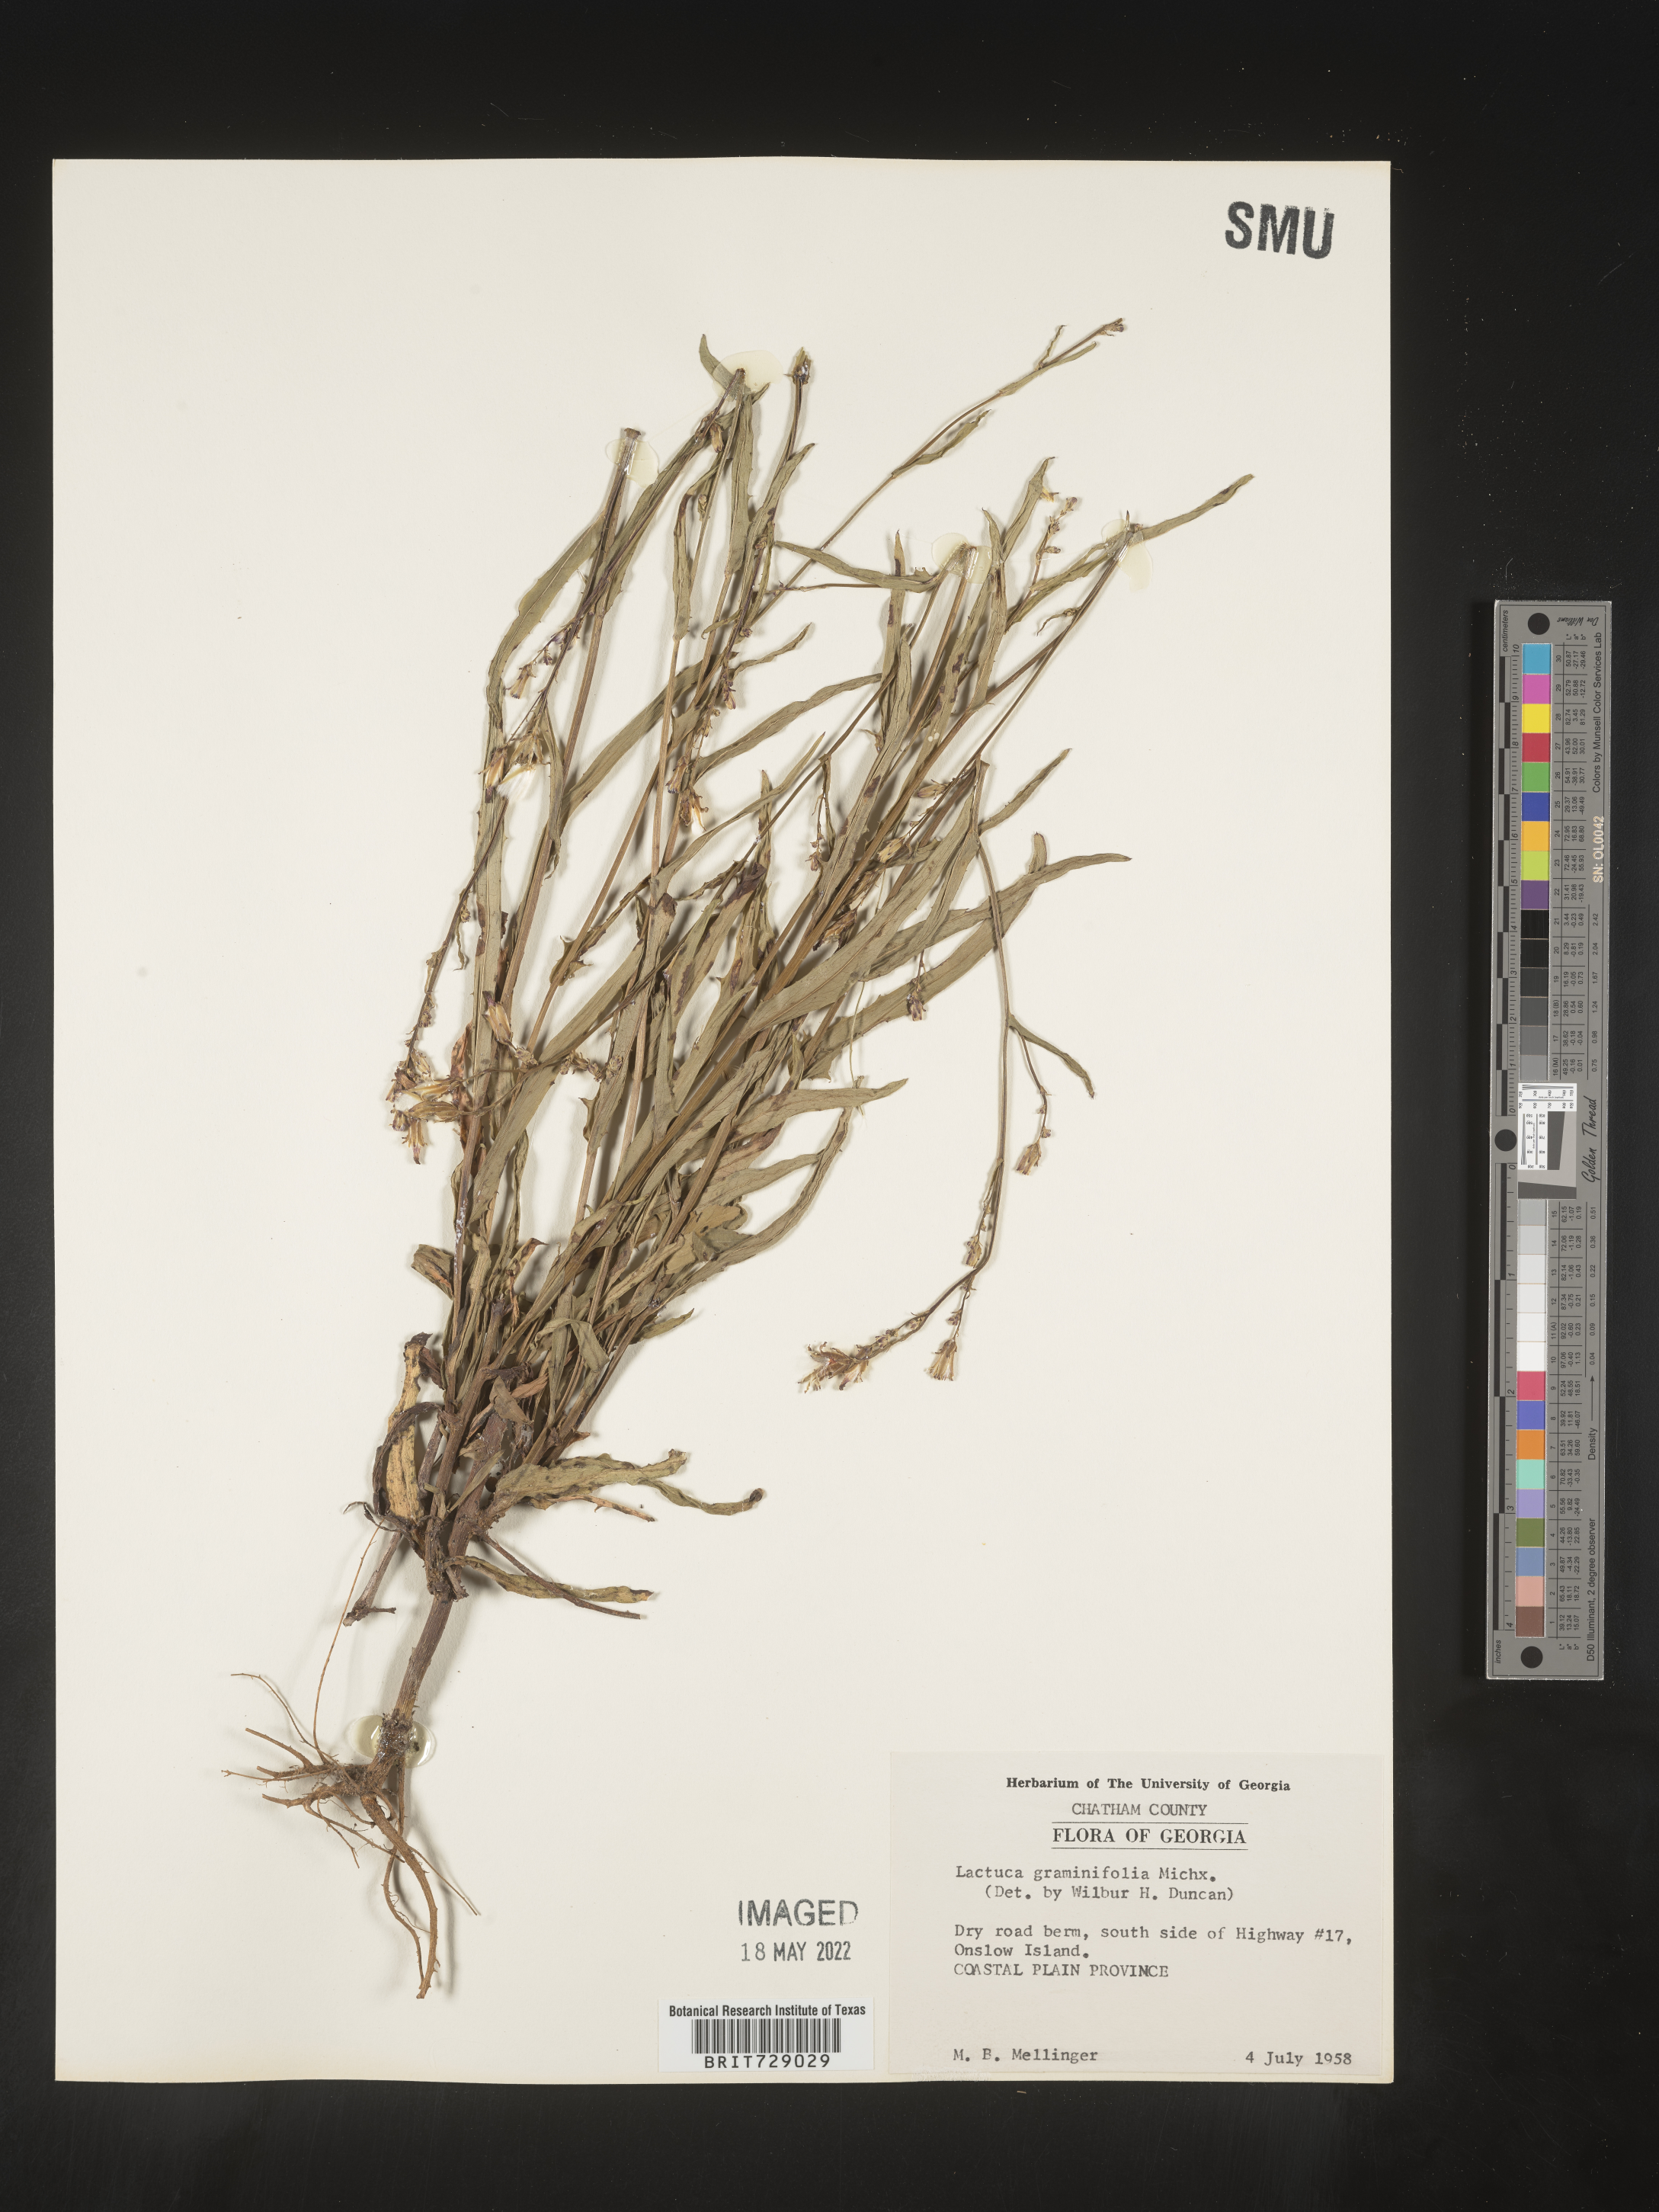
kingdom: Plantae
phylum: Tracheophyta
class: Magnoliopsida
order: Asterales
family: Asteraceae
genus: Lactuca
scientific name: Lactuca graminifolia
